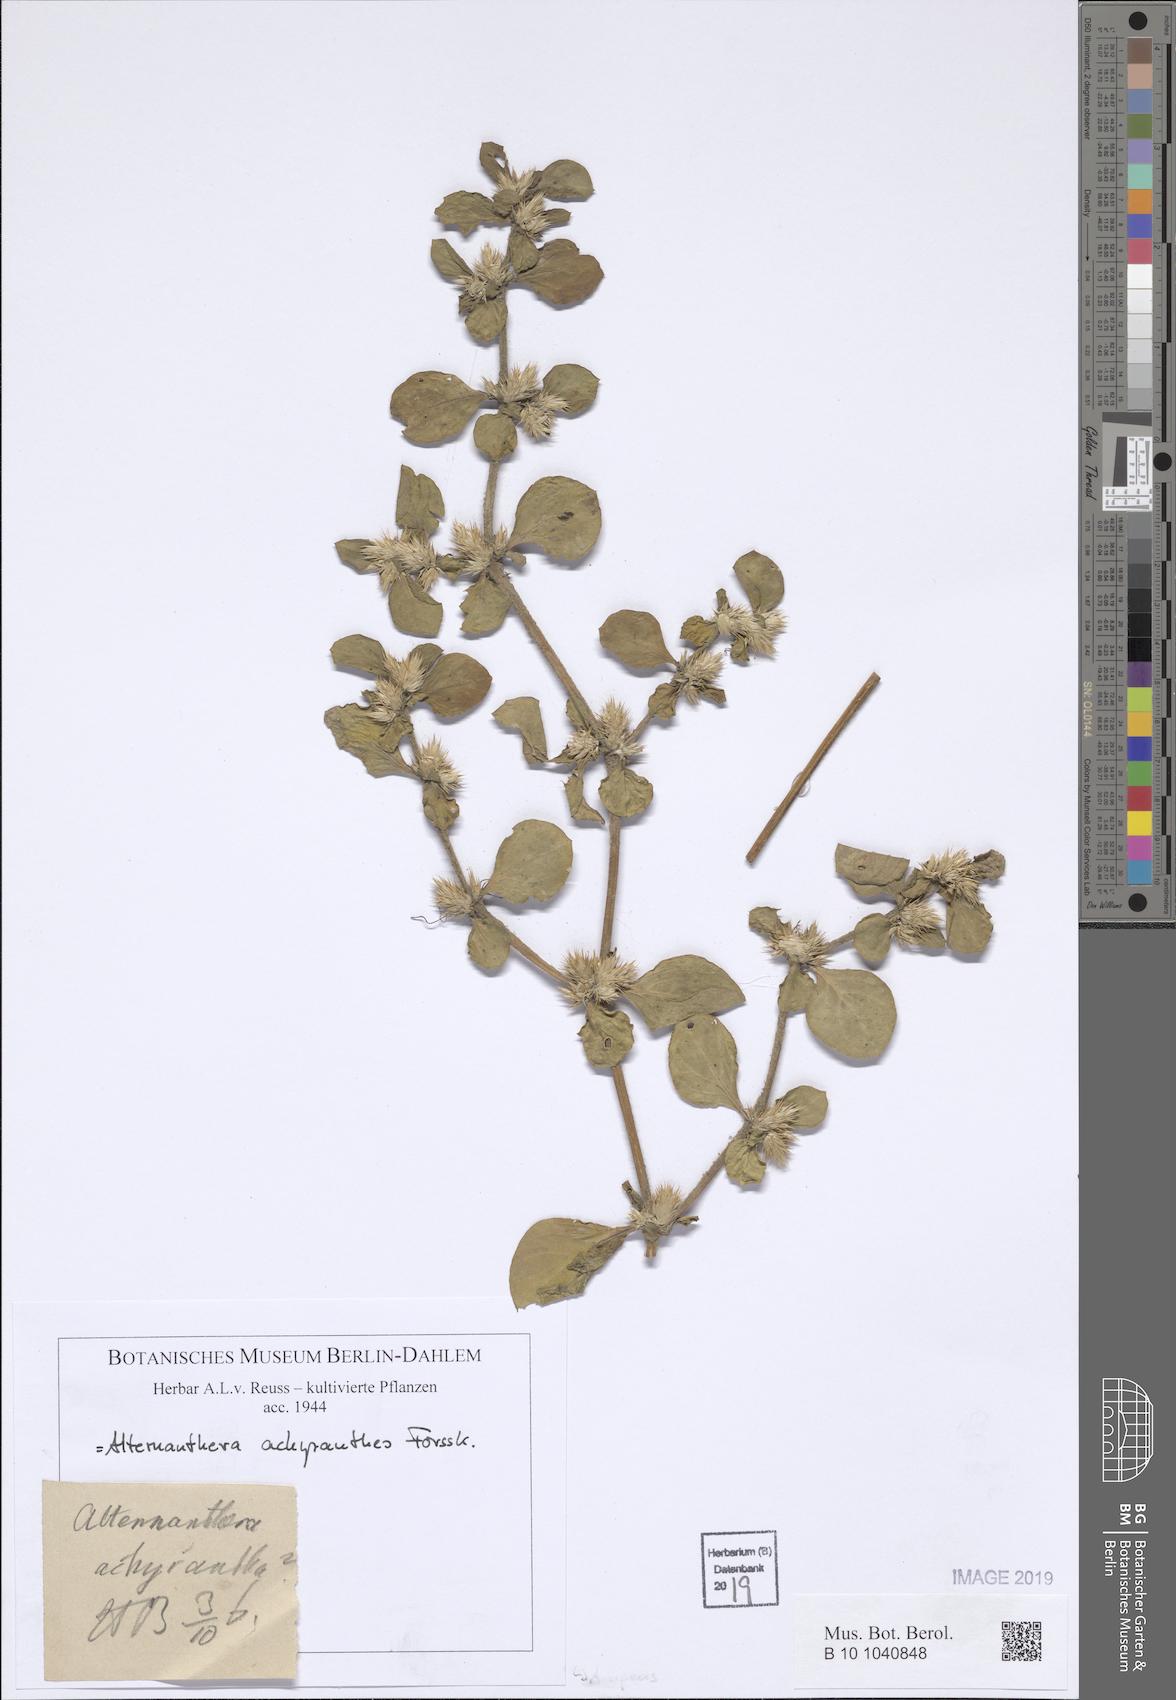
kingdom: Plantae
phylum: Tracheophyta
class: Magnoliopsida
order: Caryophyllales
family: Amaranthaceae
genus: Alternanthera
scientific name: Alternanthera sessilis
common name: Sessile joyweed
